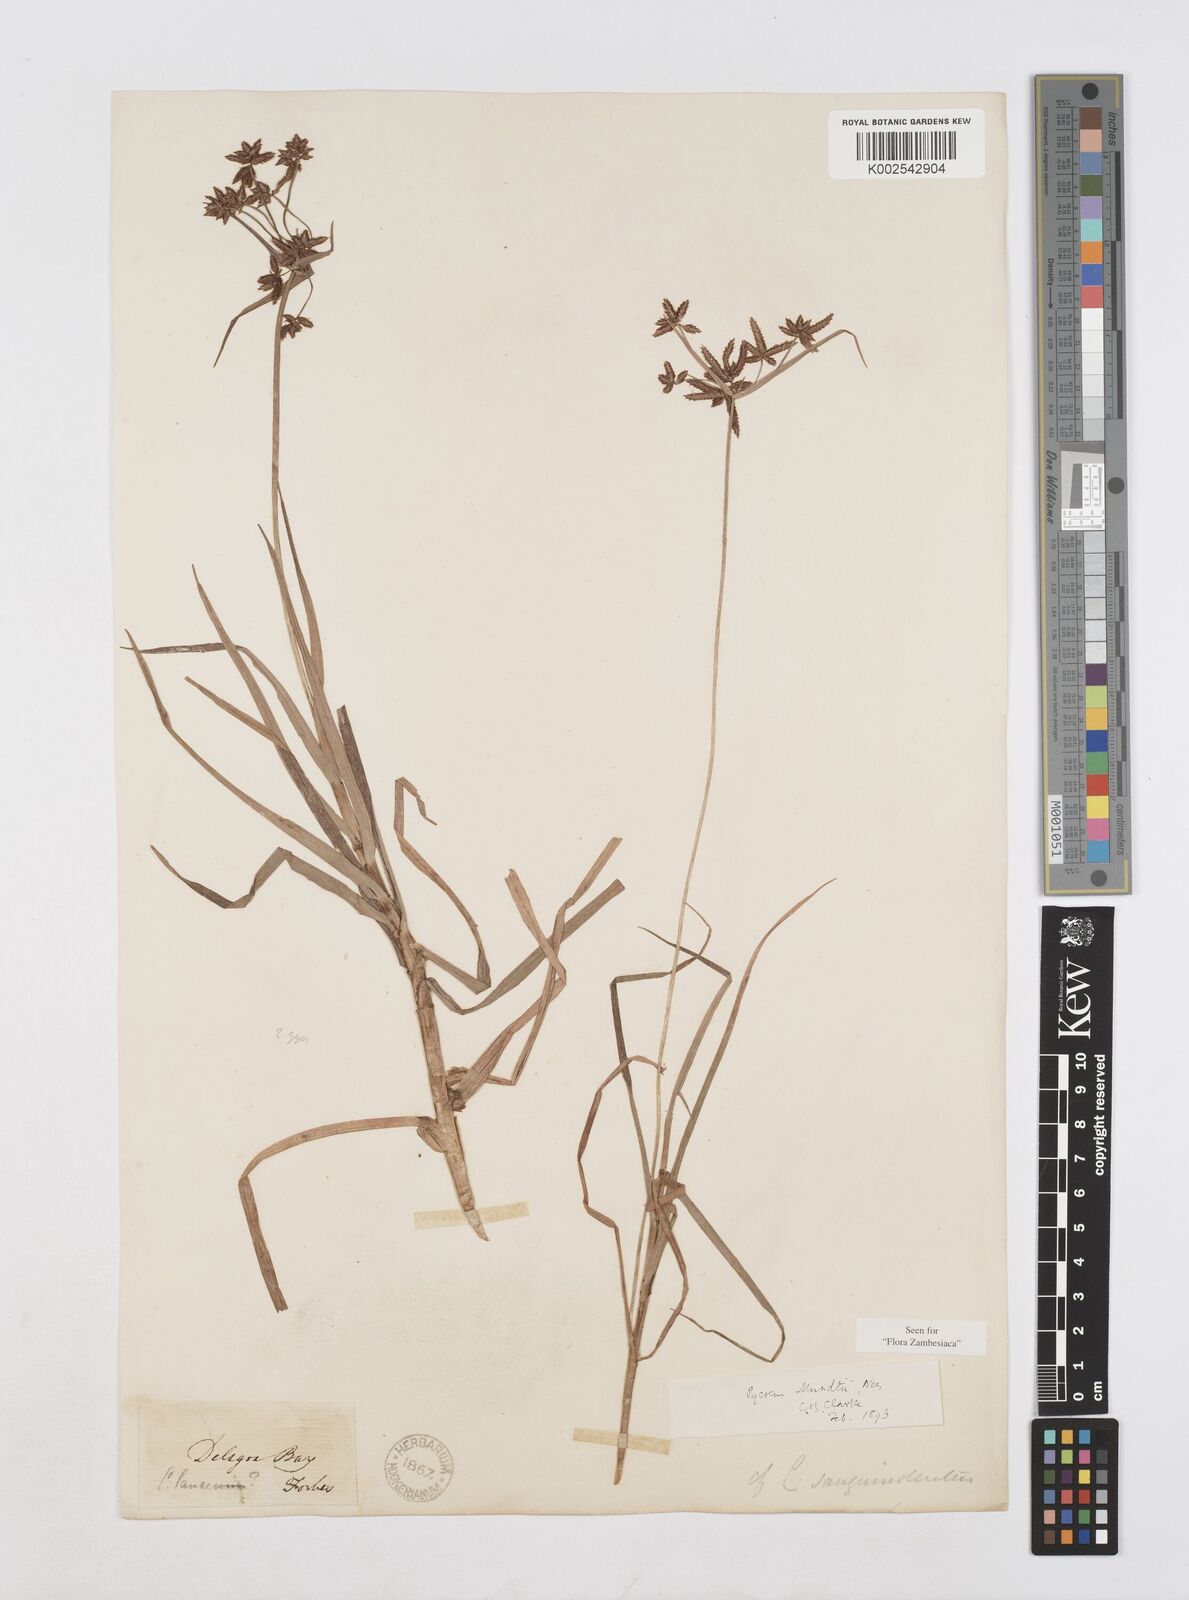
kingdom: Plantae
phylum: Tracheophyta
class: Liliopsida
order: Poales
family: Cyperaceae
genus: Cyperus
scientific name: Cyperus mundii
